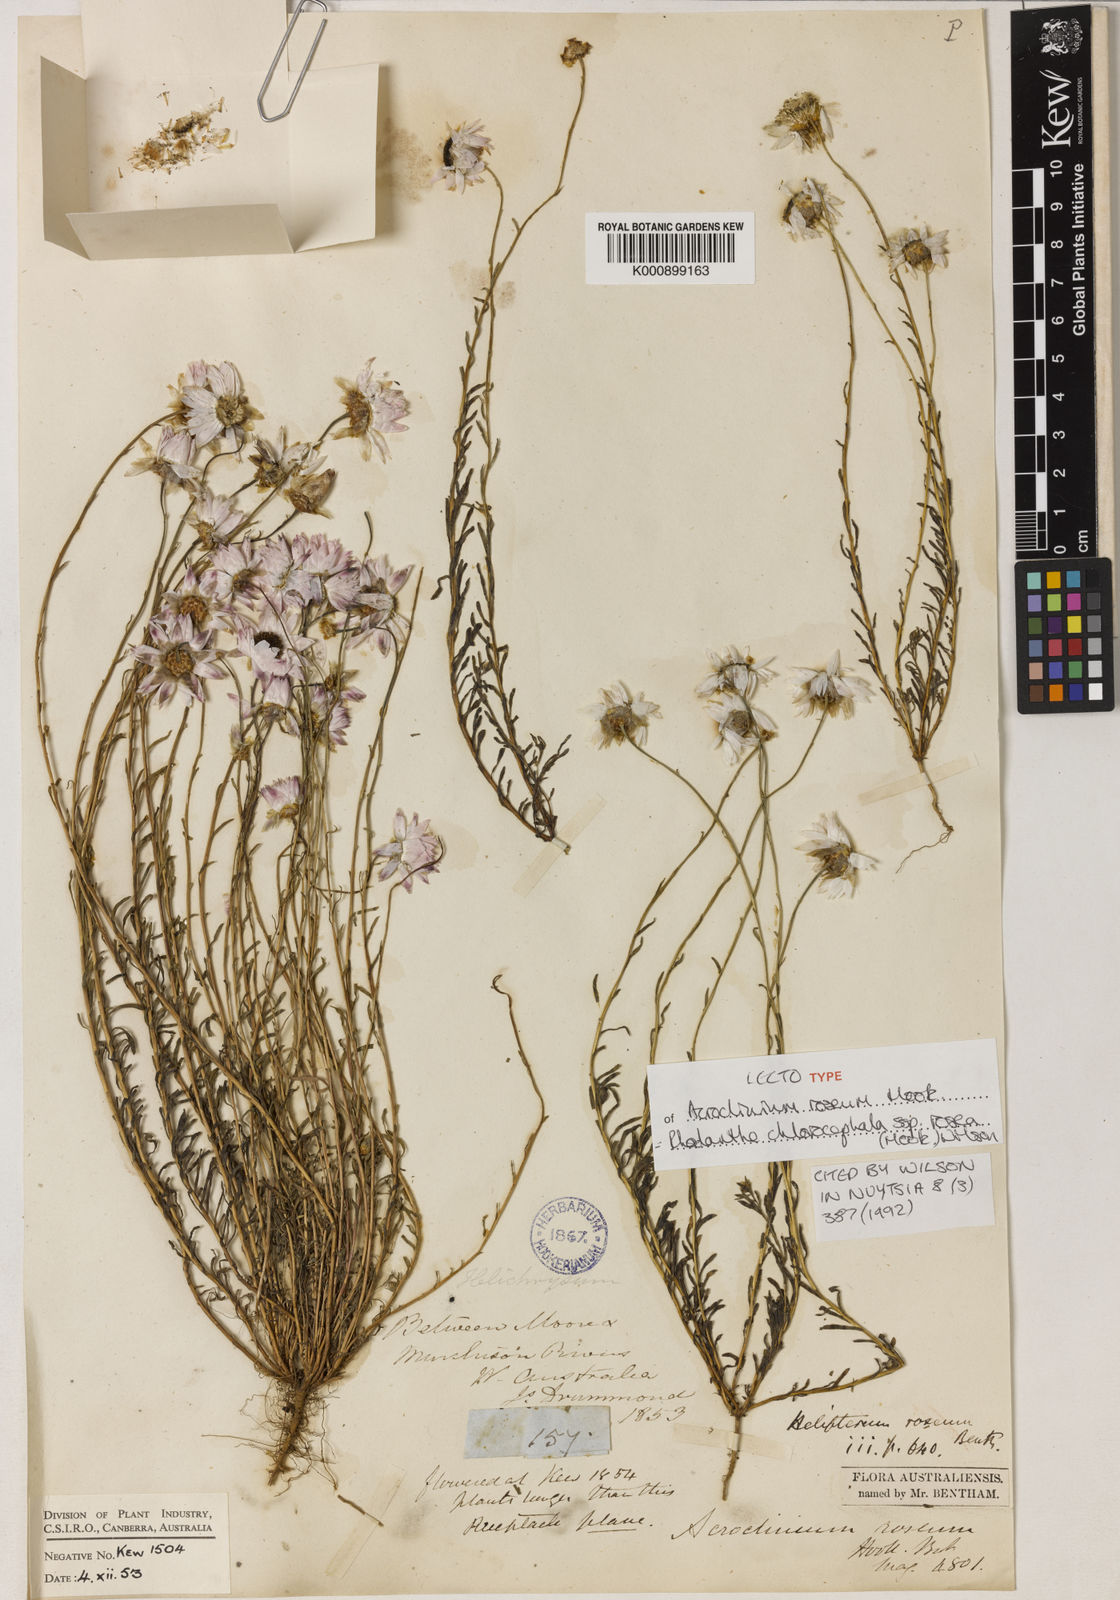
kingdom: Plantae
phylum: Tracheophyta
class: Magnoliopsida
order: Asterales
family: Asteraceae
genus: Rhodanthe
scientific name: Rhodanthe chlorocephala
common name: Rosy sunray
